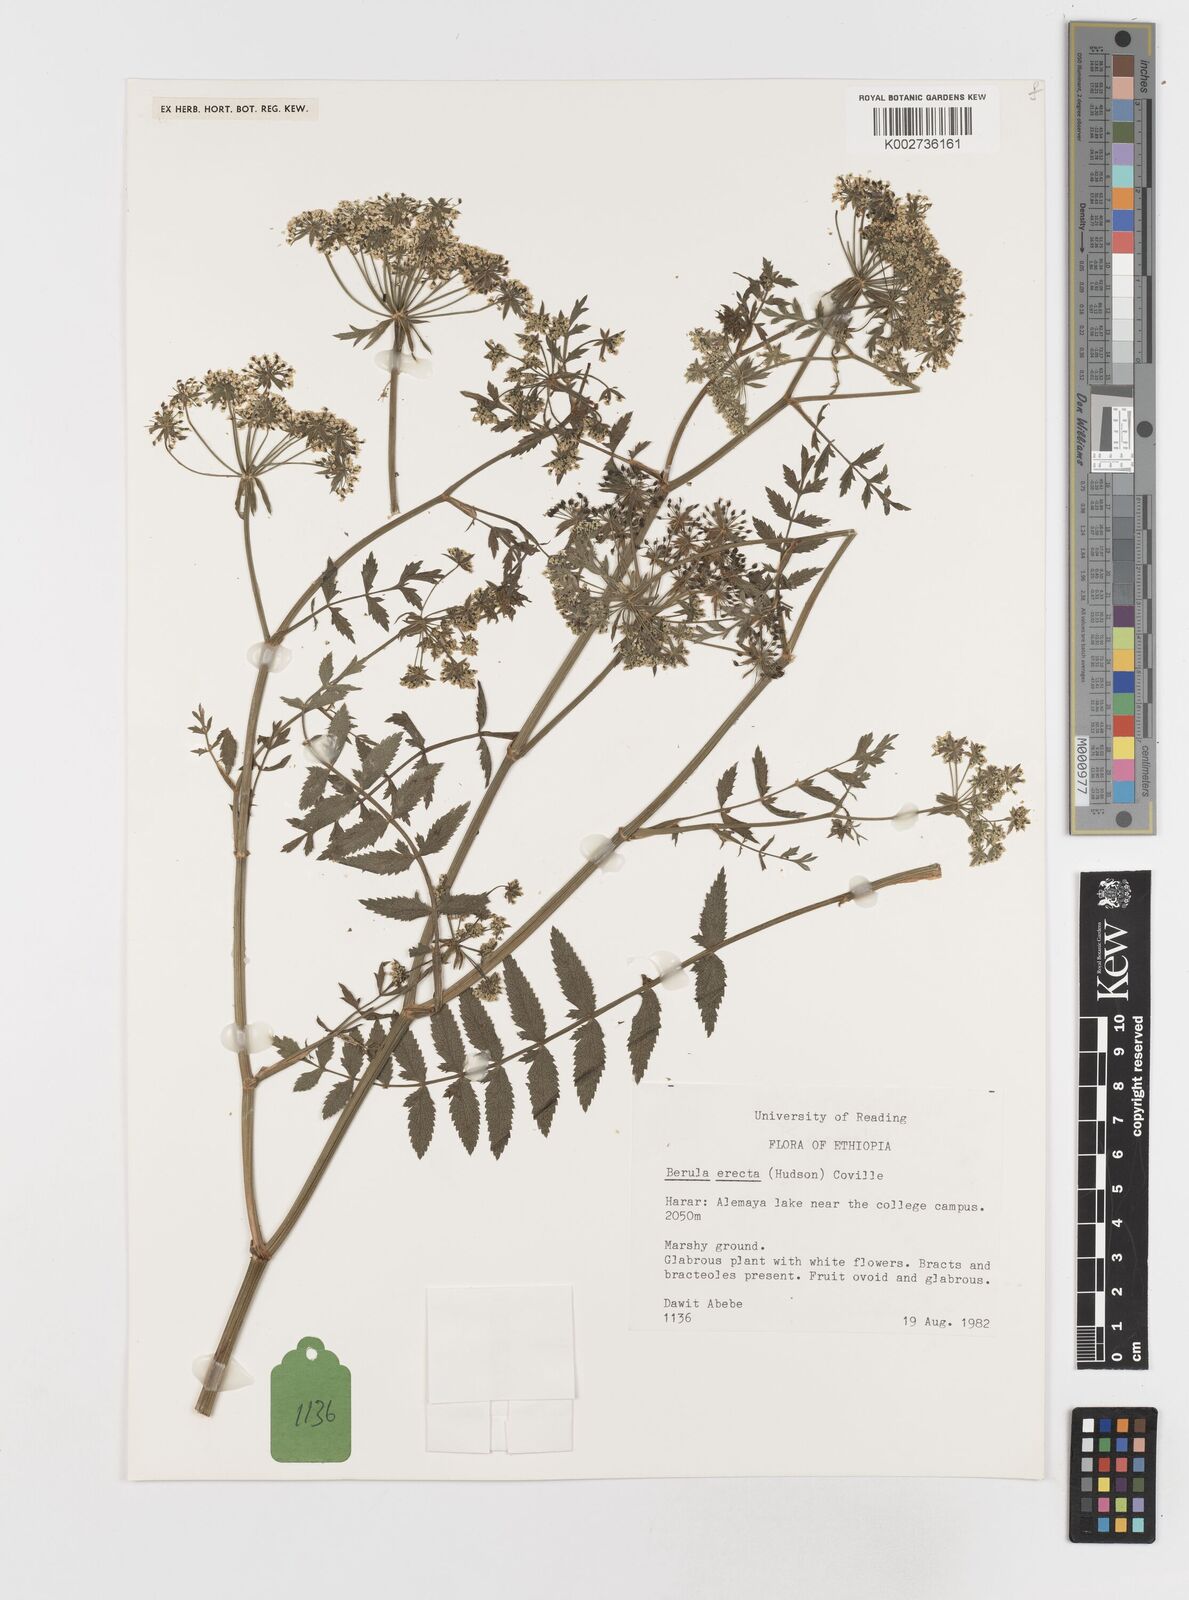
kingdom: Plantae
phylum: Tracheophyta
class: Magnoliopsida
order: Apiales
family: Apiaceae
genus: Berula
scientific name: Berula erecta
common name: Lesser water-parsnip
